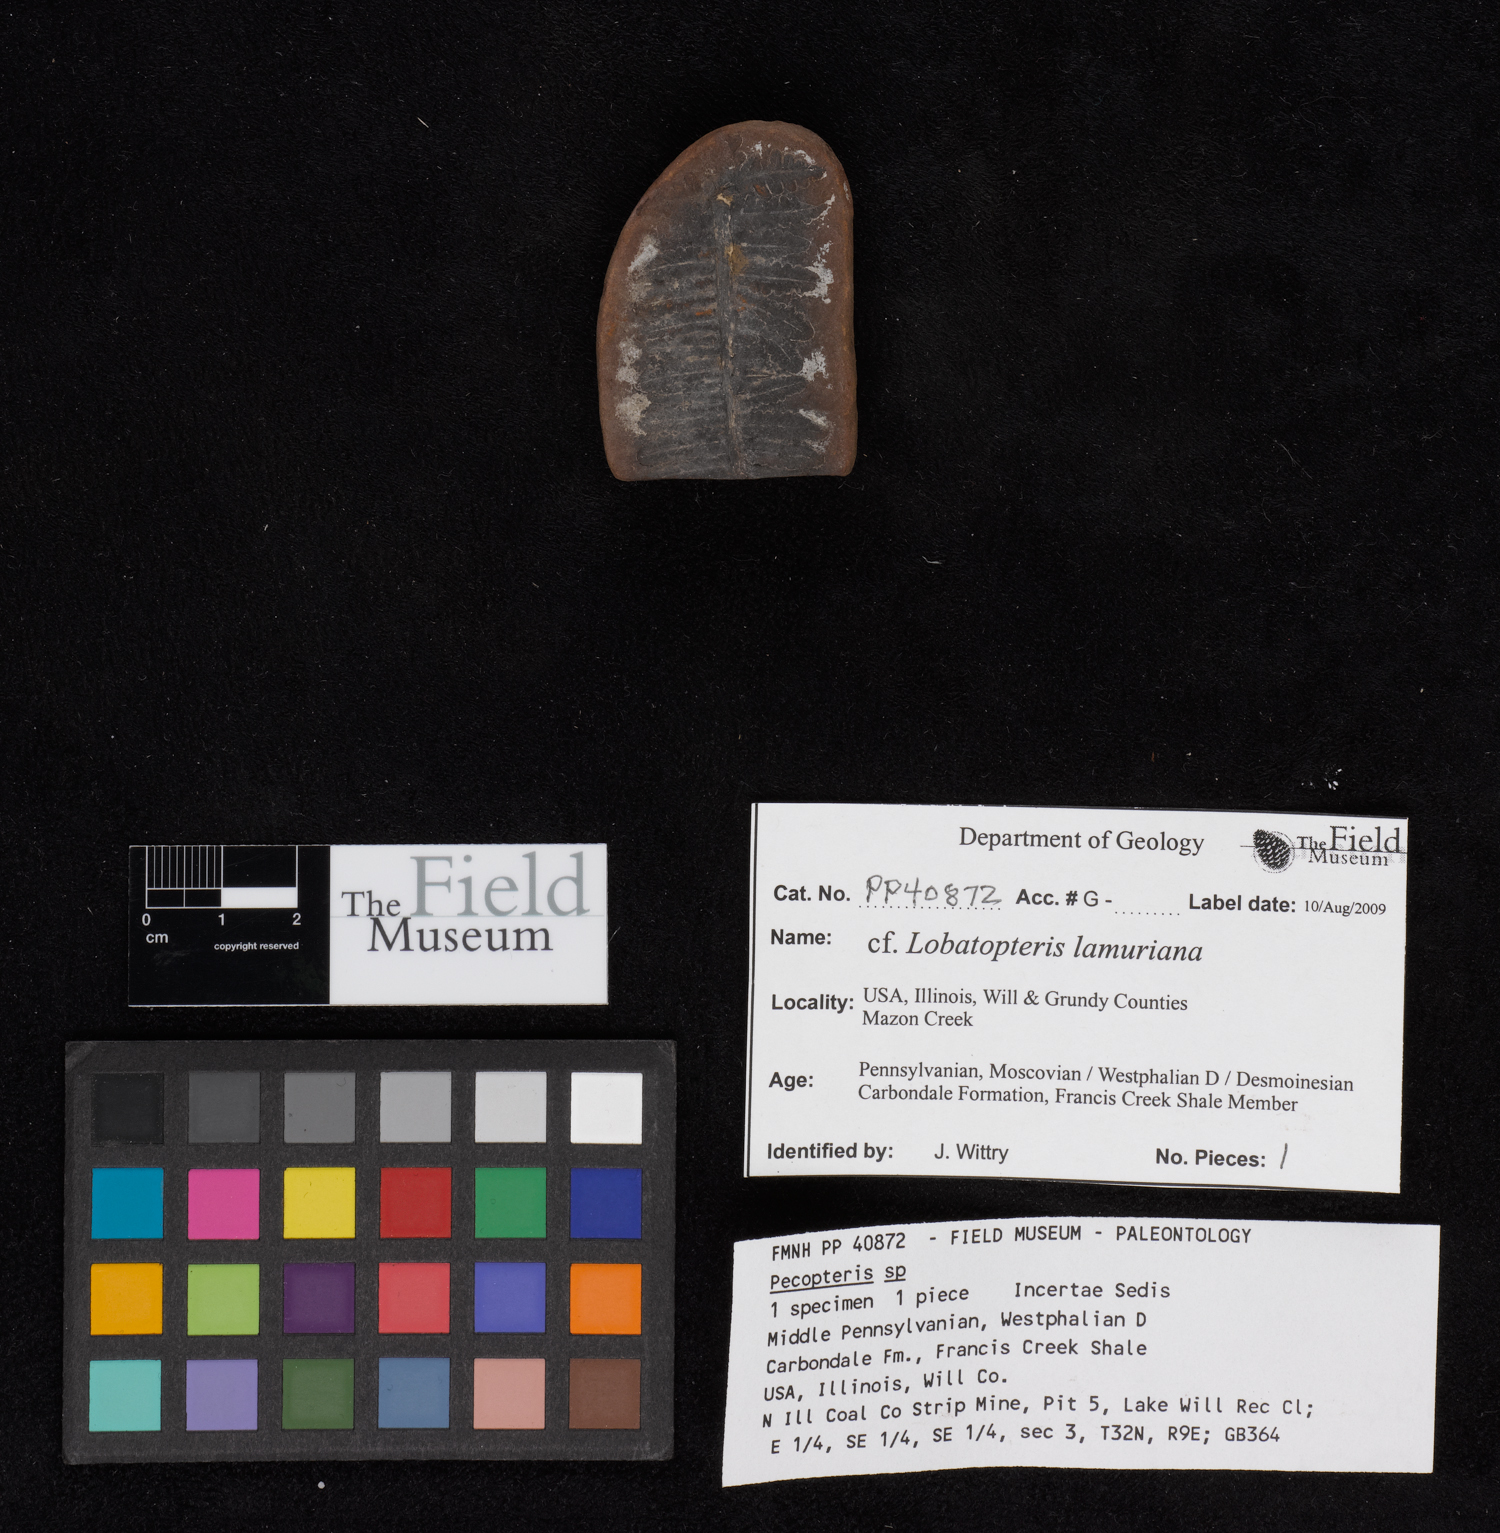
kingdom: Plantae
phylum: Tracheophyta
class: Polypodiopsida
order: Marattiales
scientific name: Marattiales
